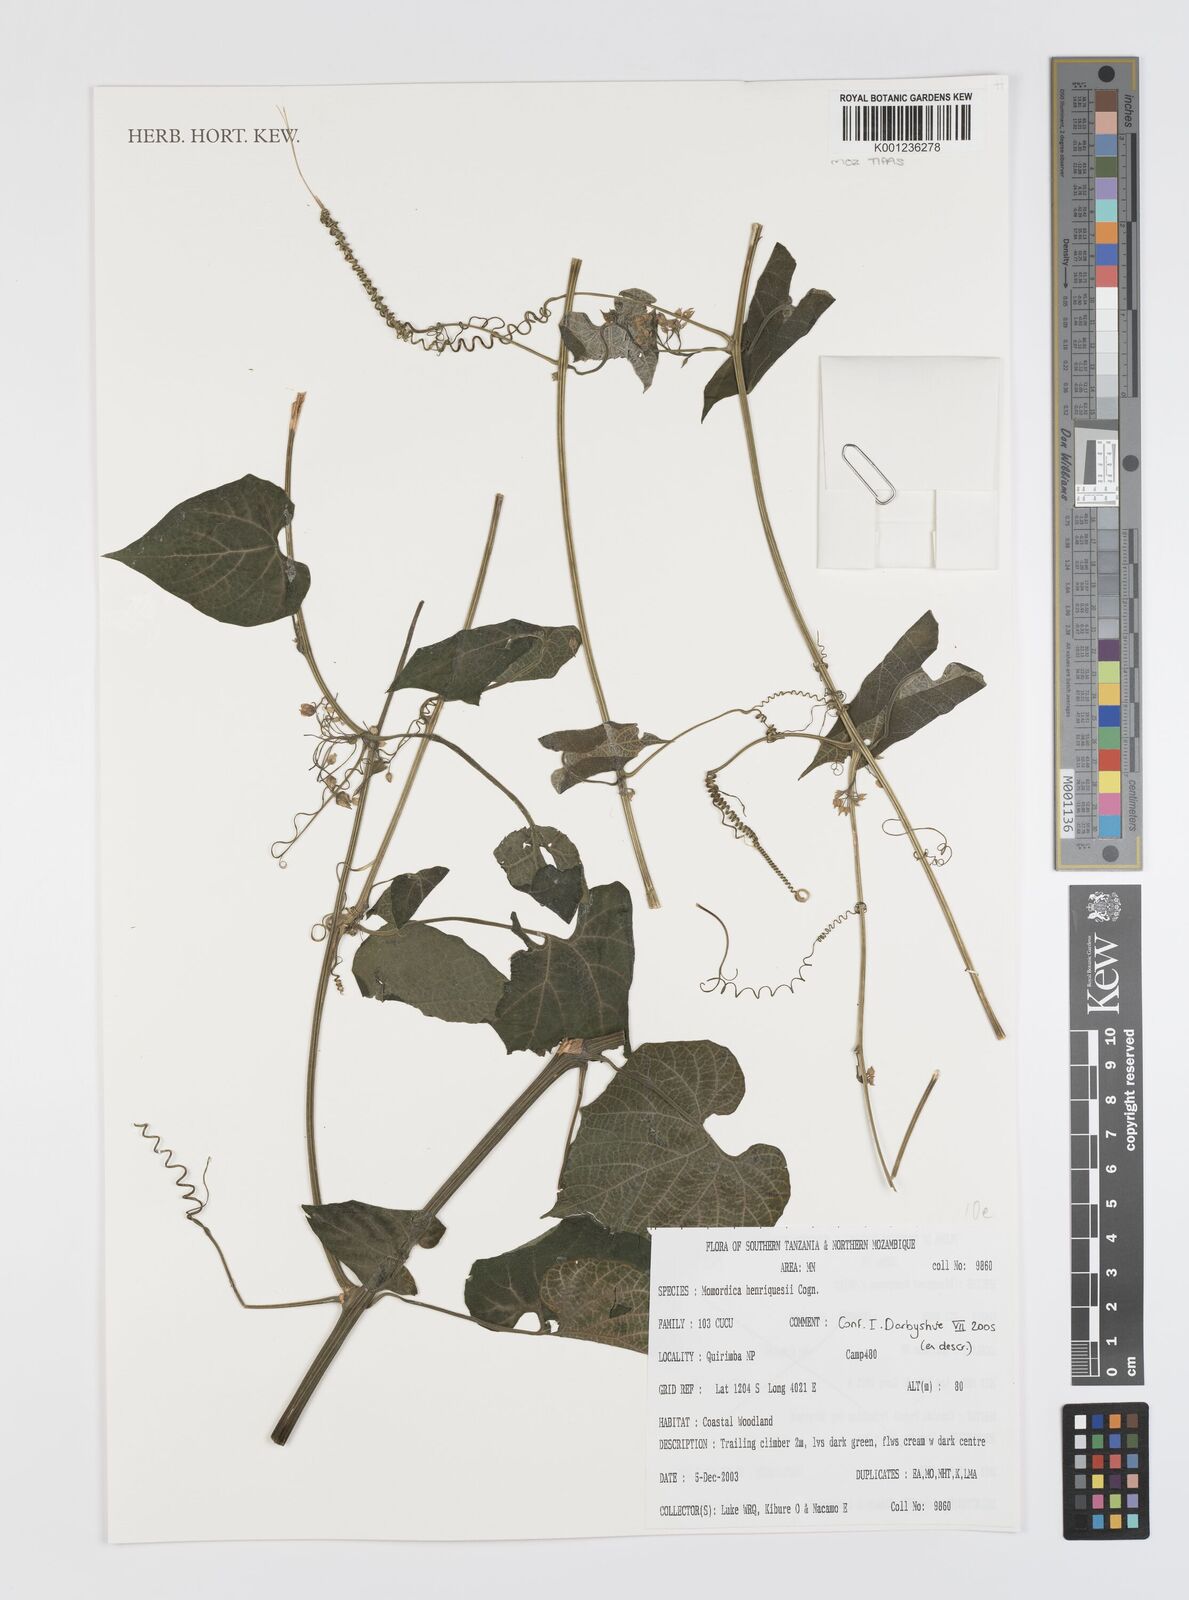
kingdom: Plantae
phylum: Tracheophyta
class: Magnoliopsida
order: Cucurbitales
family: Cucurbitaceae
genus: Momordica
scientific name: Momordica henriquesii
